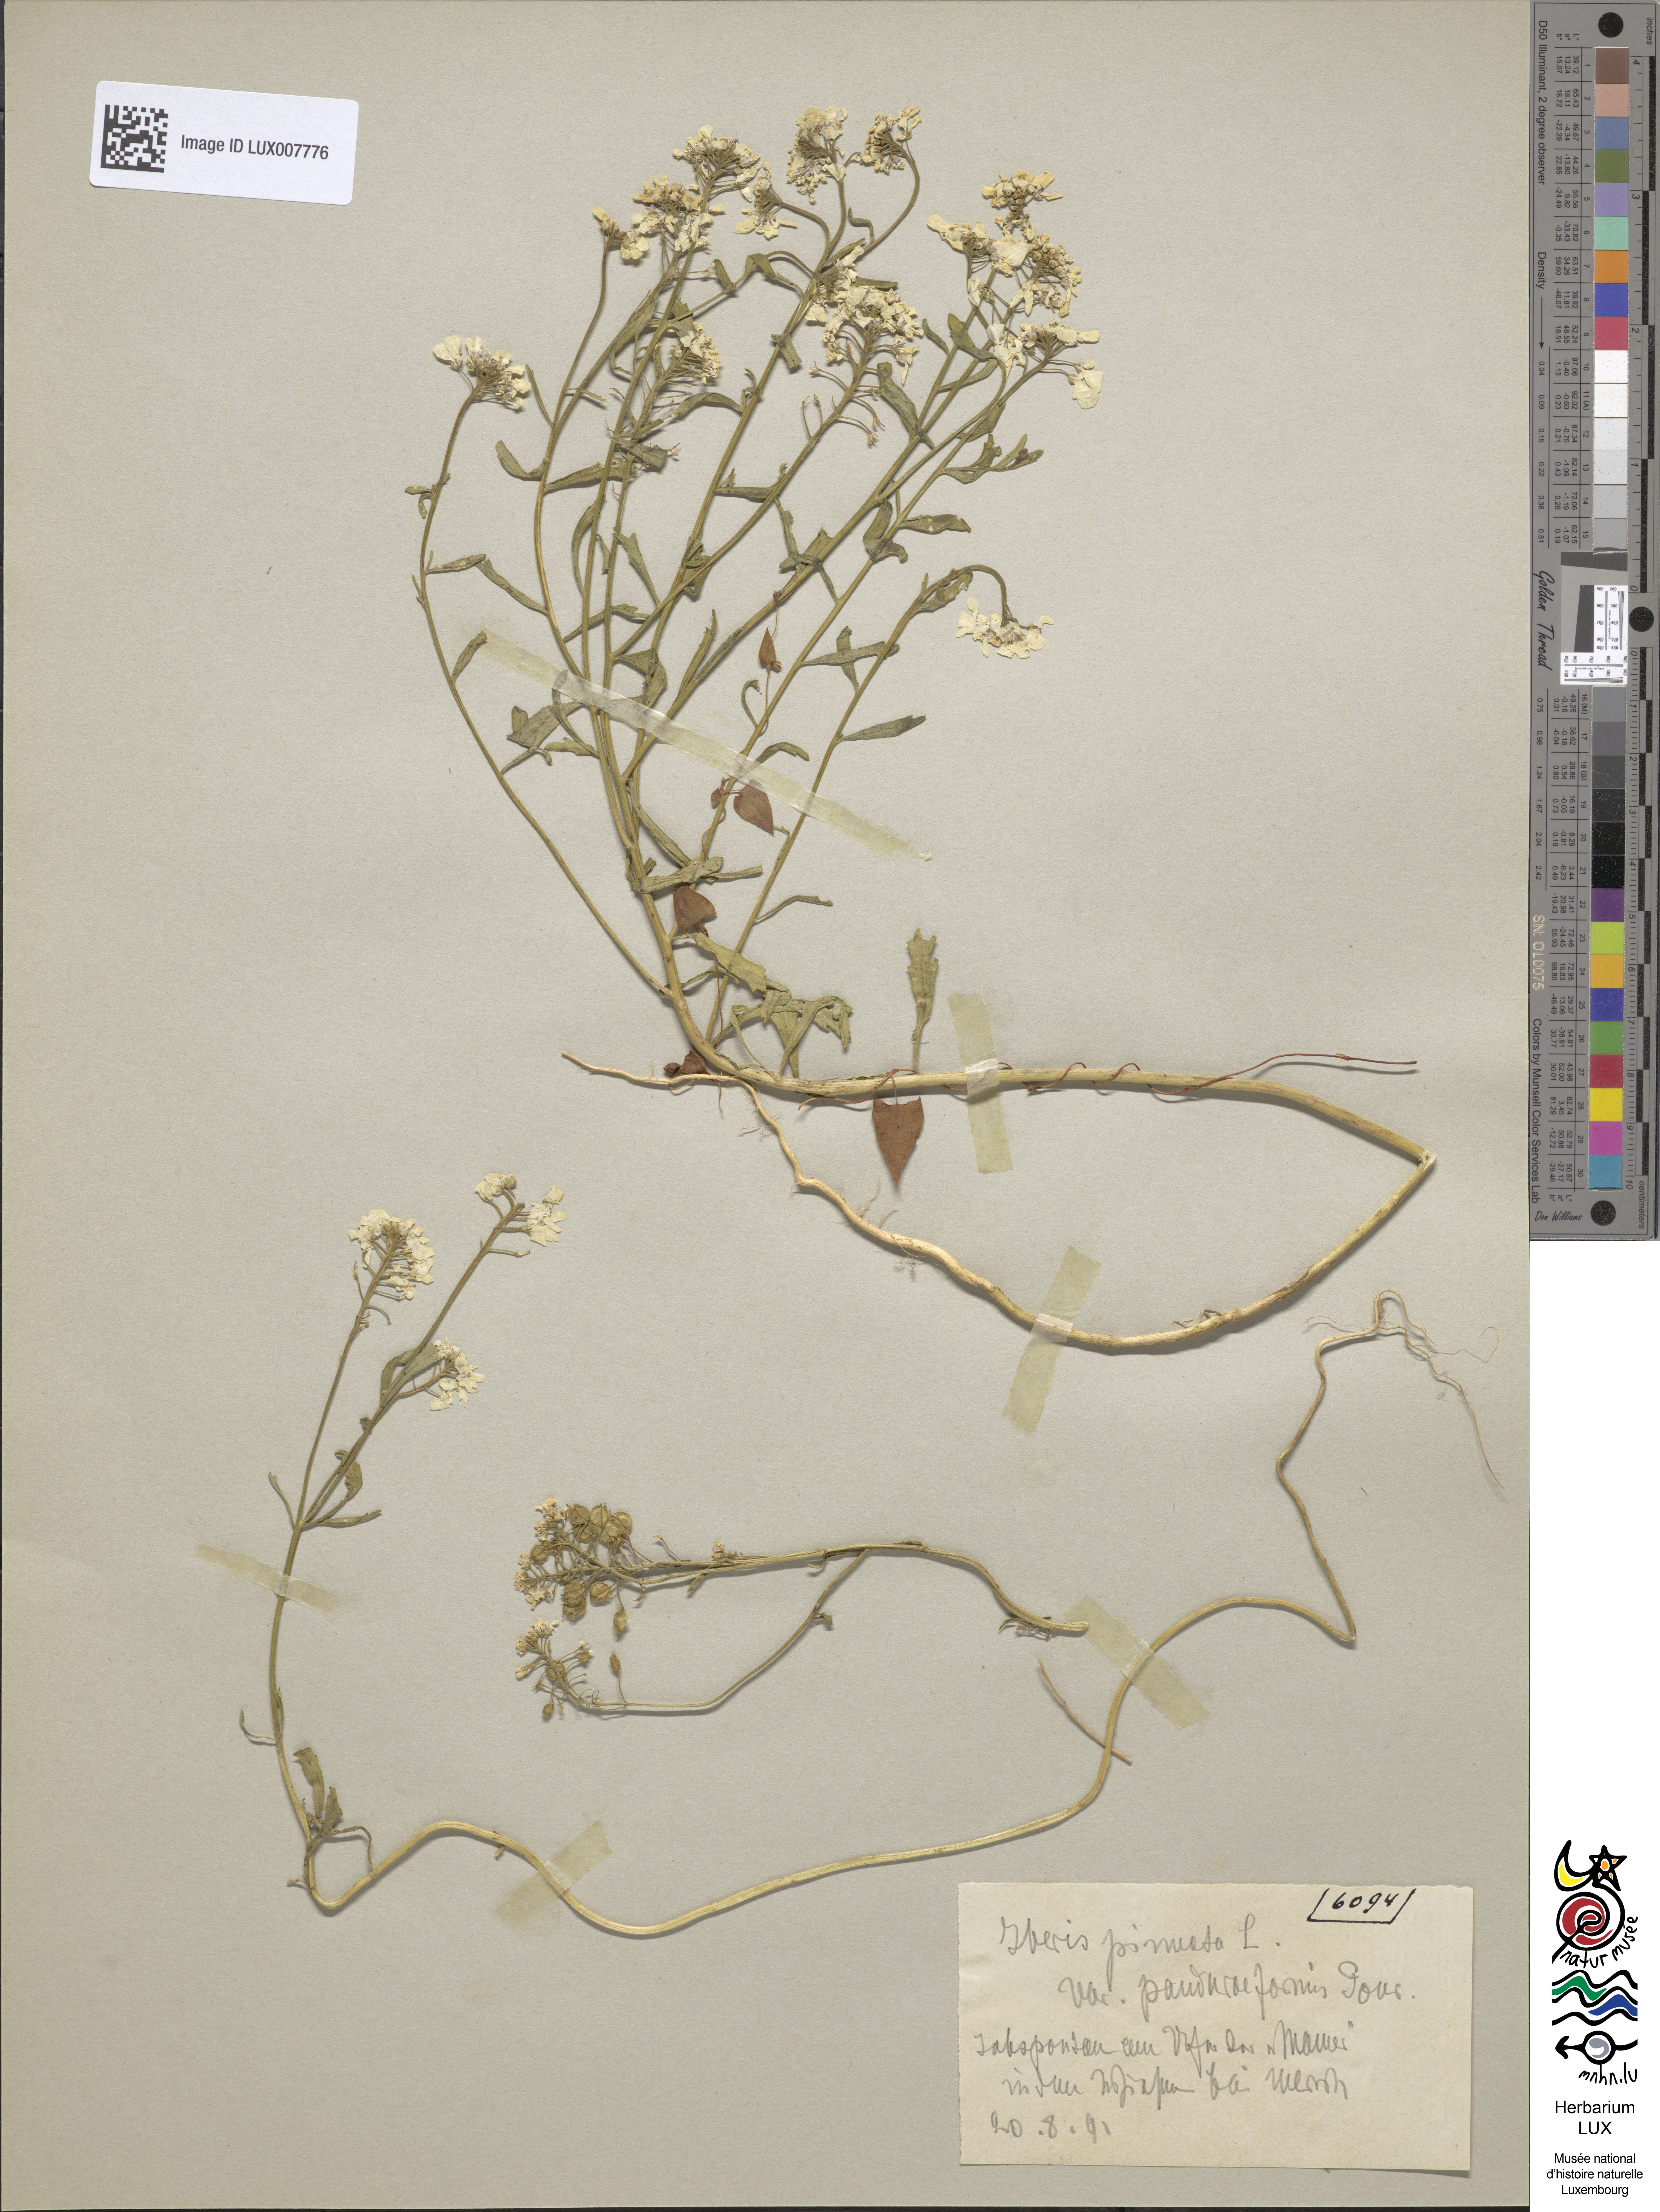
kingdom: Plantae
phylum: Tracheophyta
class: Magnoliopsida
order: Brassicales
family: Brassicaceae
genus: Iberis
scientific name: Iberis pinnata
